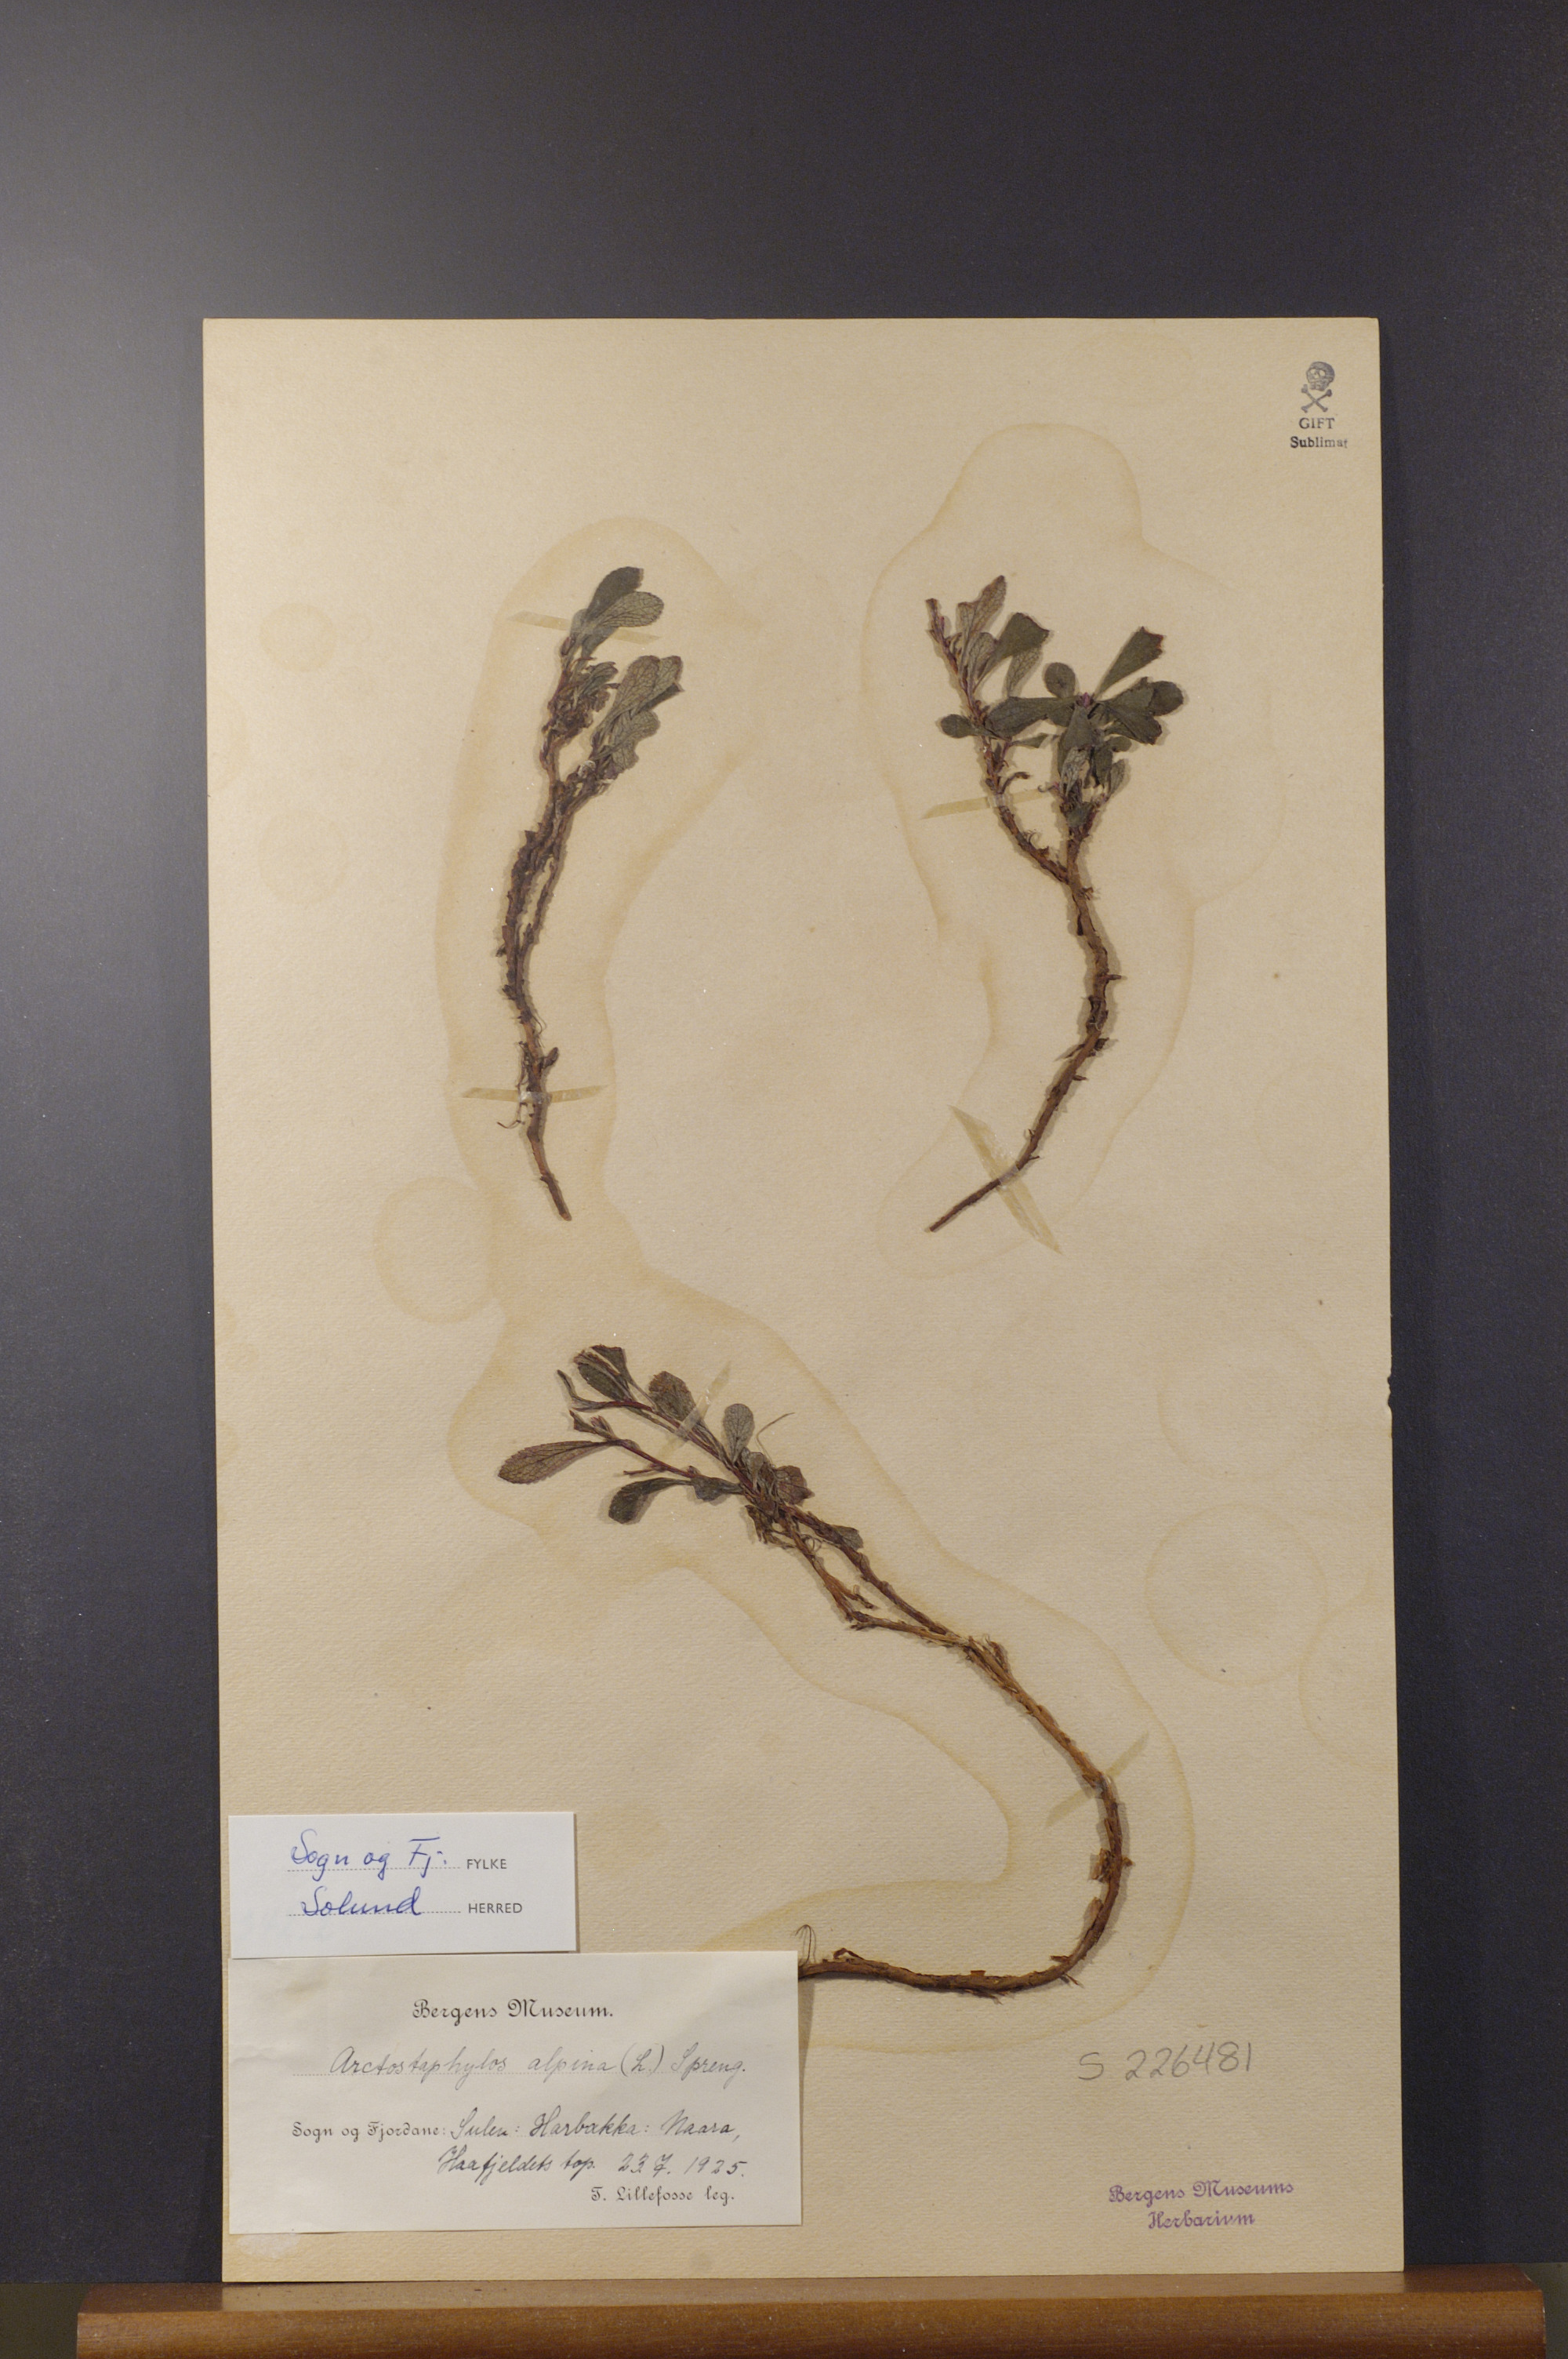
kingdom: Plantae
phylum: Tracheophyta
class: Magnoliopsida
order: Ericales
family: Ericaceae
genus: Arctostaphylos
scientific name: Arctostaphylos alpinus
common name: Alpine bearberry
